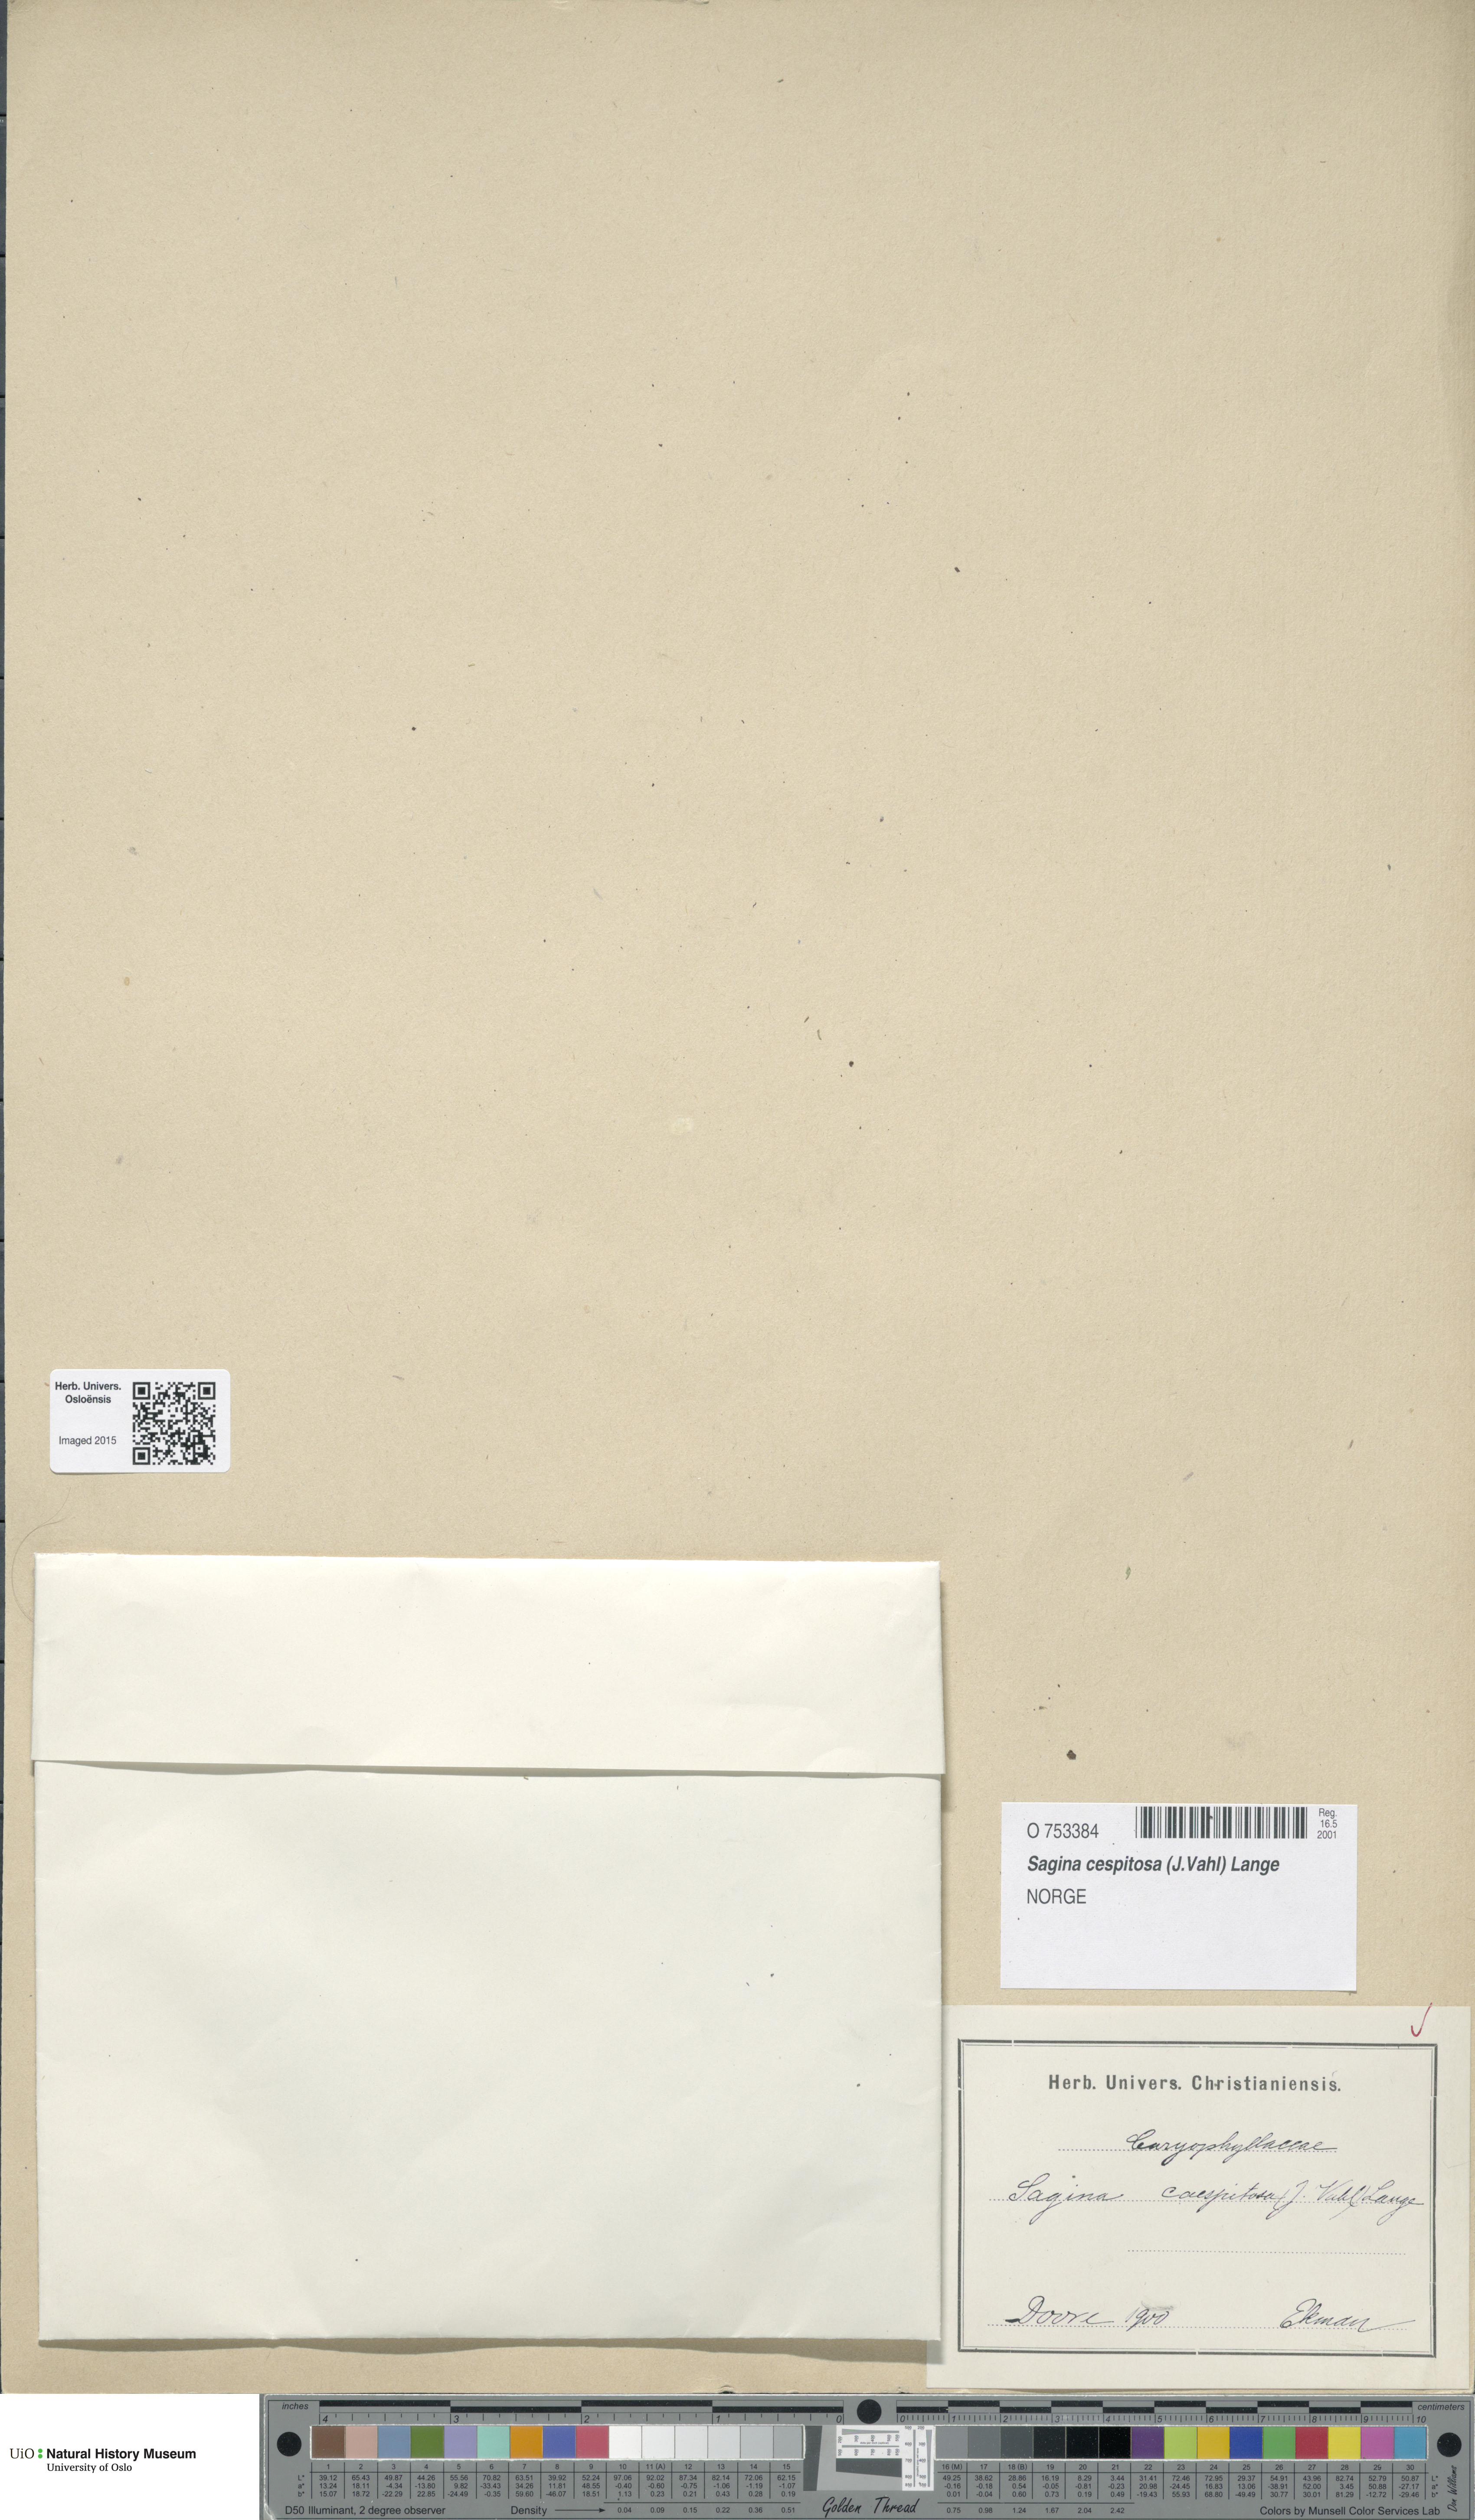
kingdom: Plantae
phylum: Tracheophyta
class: Magnoliopsida
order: Caryophyllales
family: Caryophyllaceae
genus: Sagina
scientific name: Sagina caespitosa
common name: Tufted pearlwort
